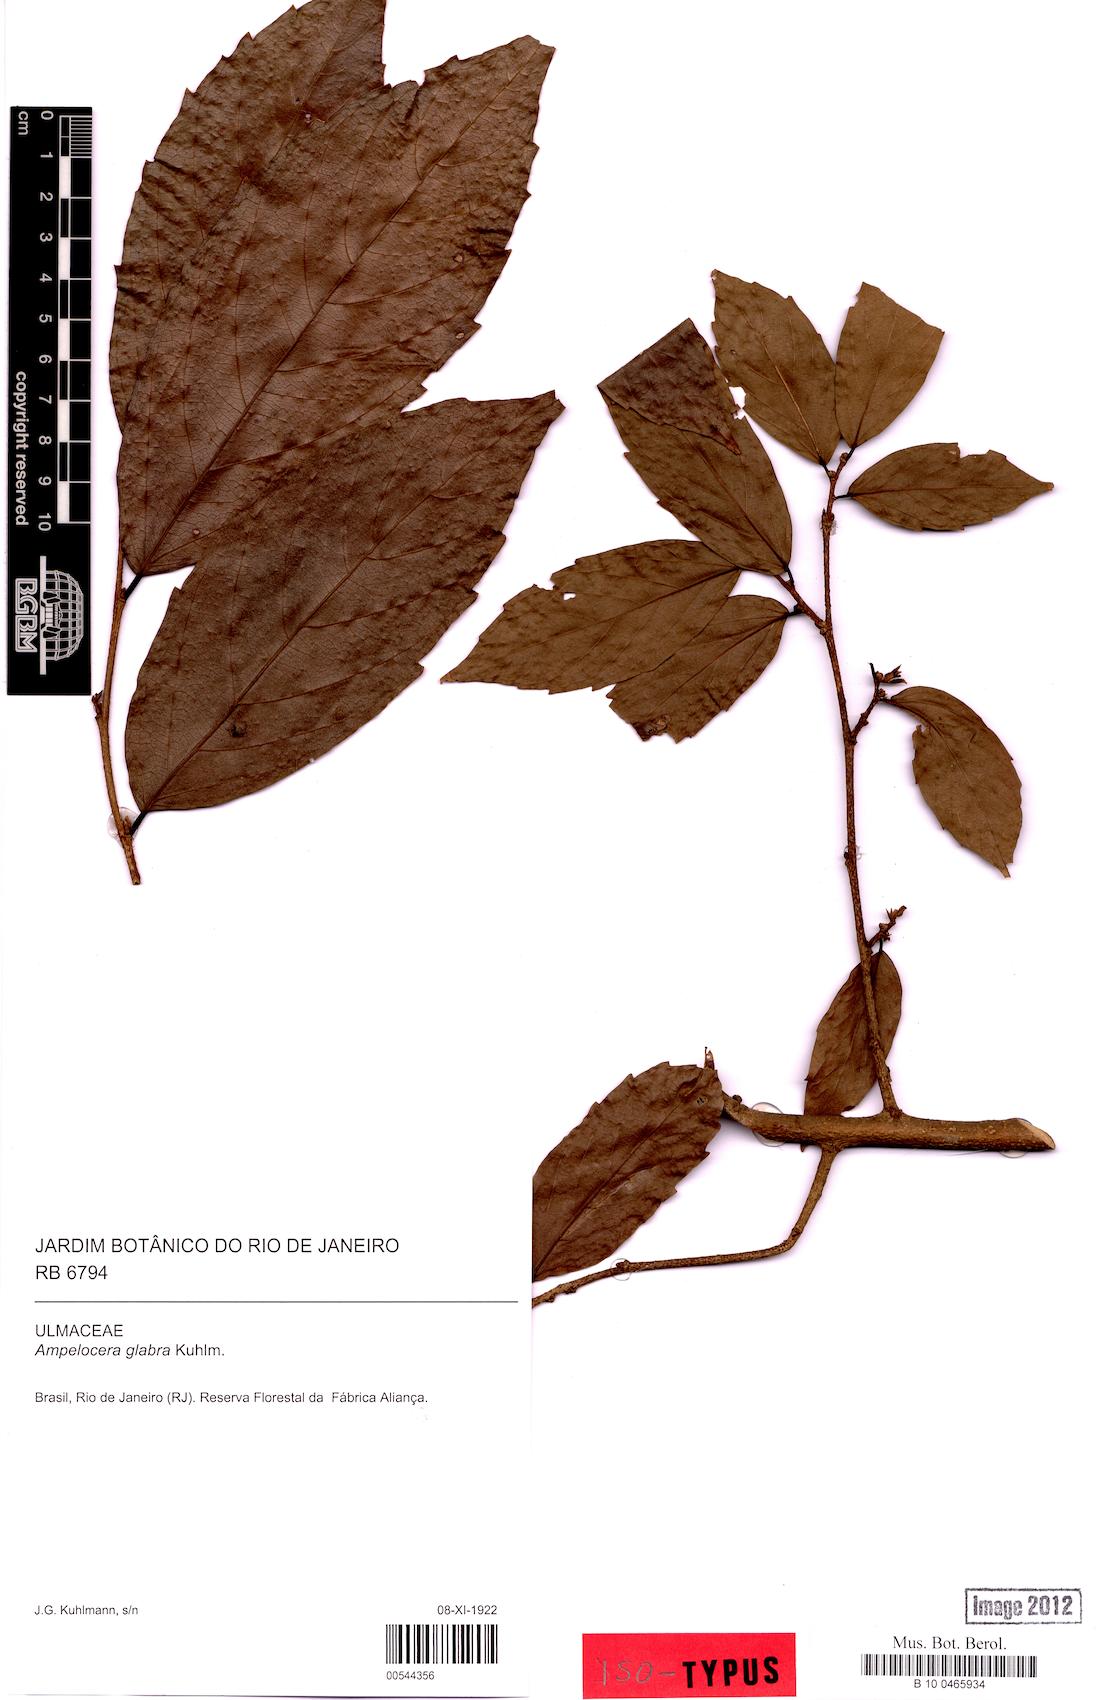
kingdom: Plantae
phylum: Tracheophyta
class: Magnoliopsida
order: Rosales
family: Cannabaceae
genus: Ampelocera
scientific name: Ampelocera glabra
